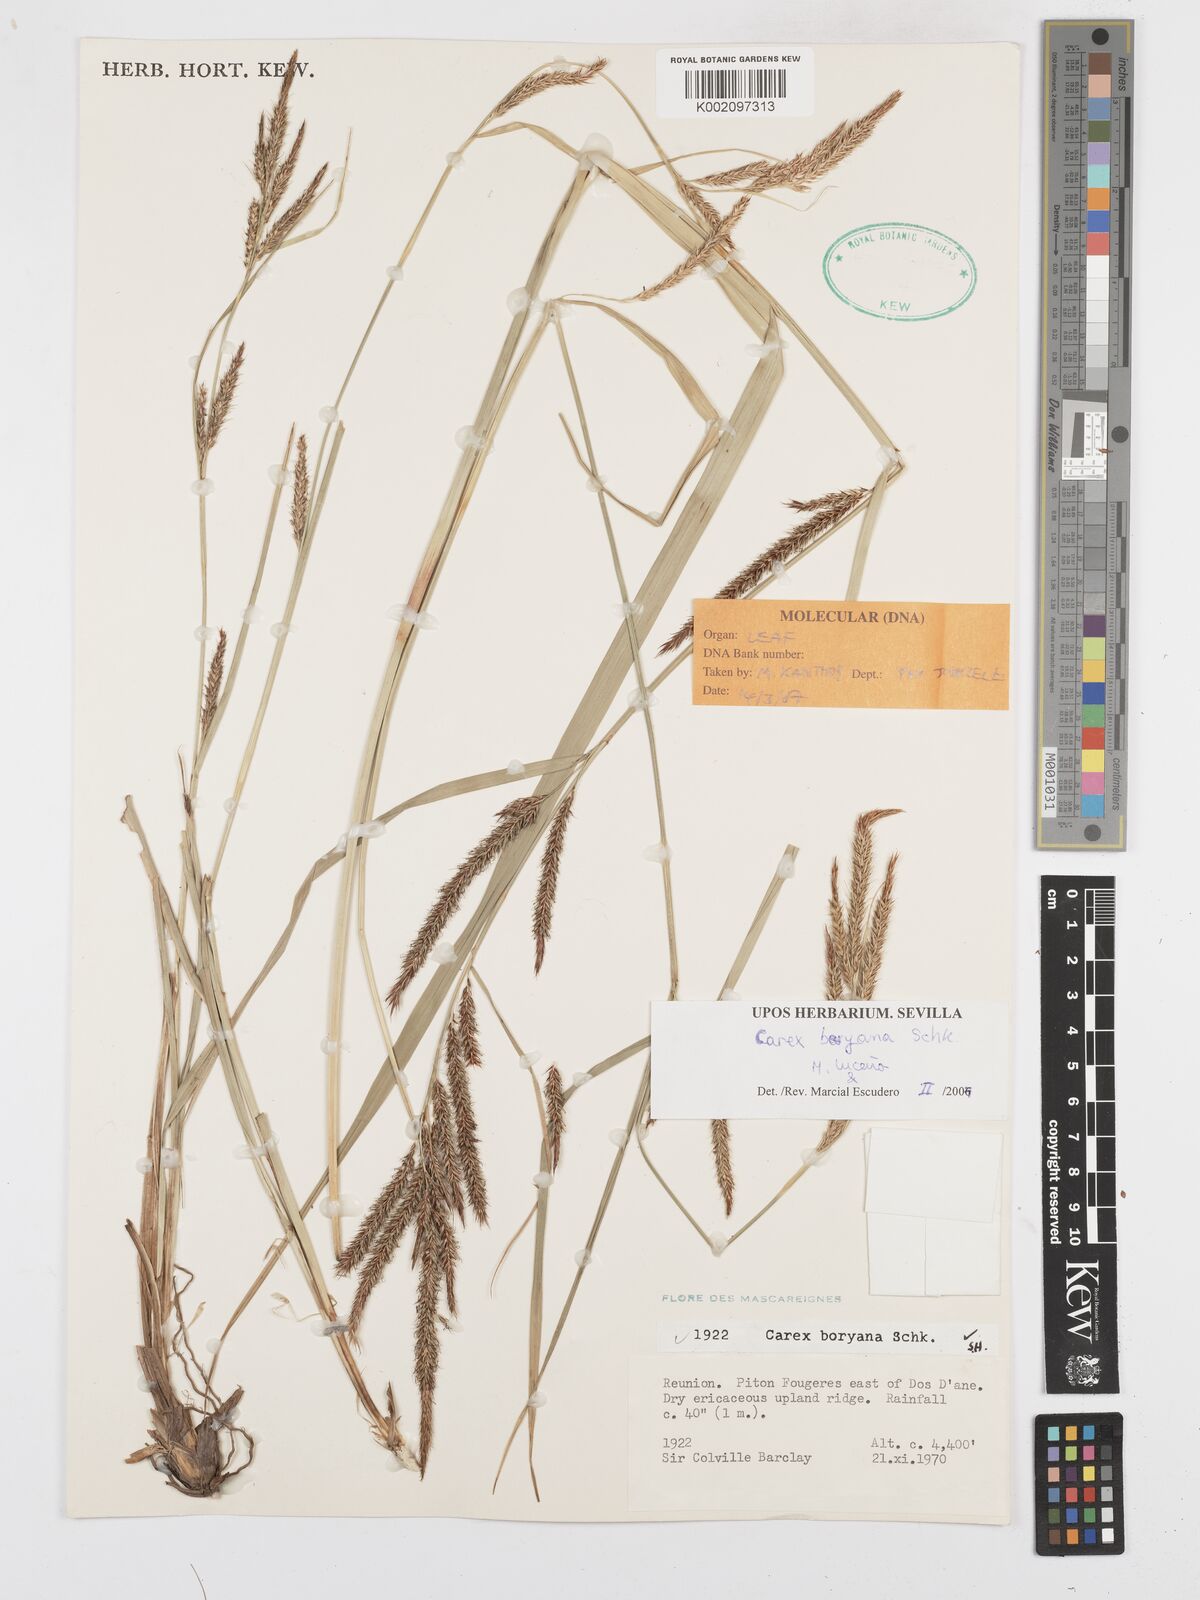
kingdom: Plantae
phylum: Tracheophyta
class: Liliopsida
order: Poales
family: Cyperaceae
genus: Carex
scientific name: Carex boryana
